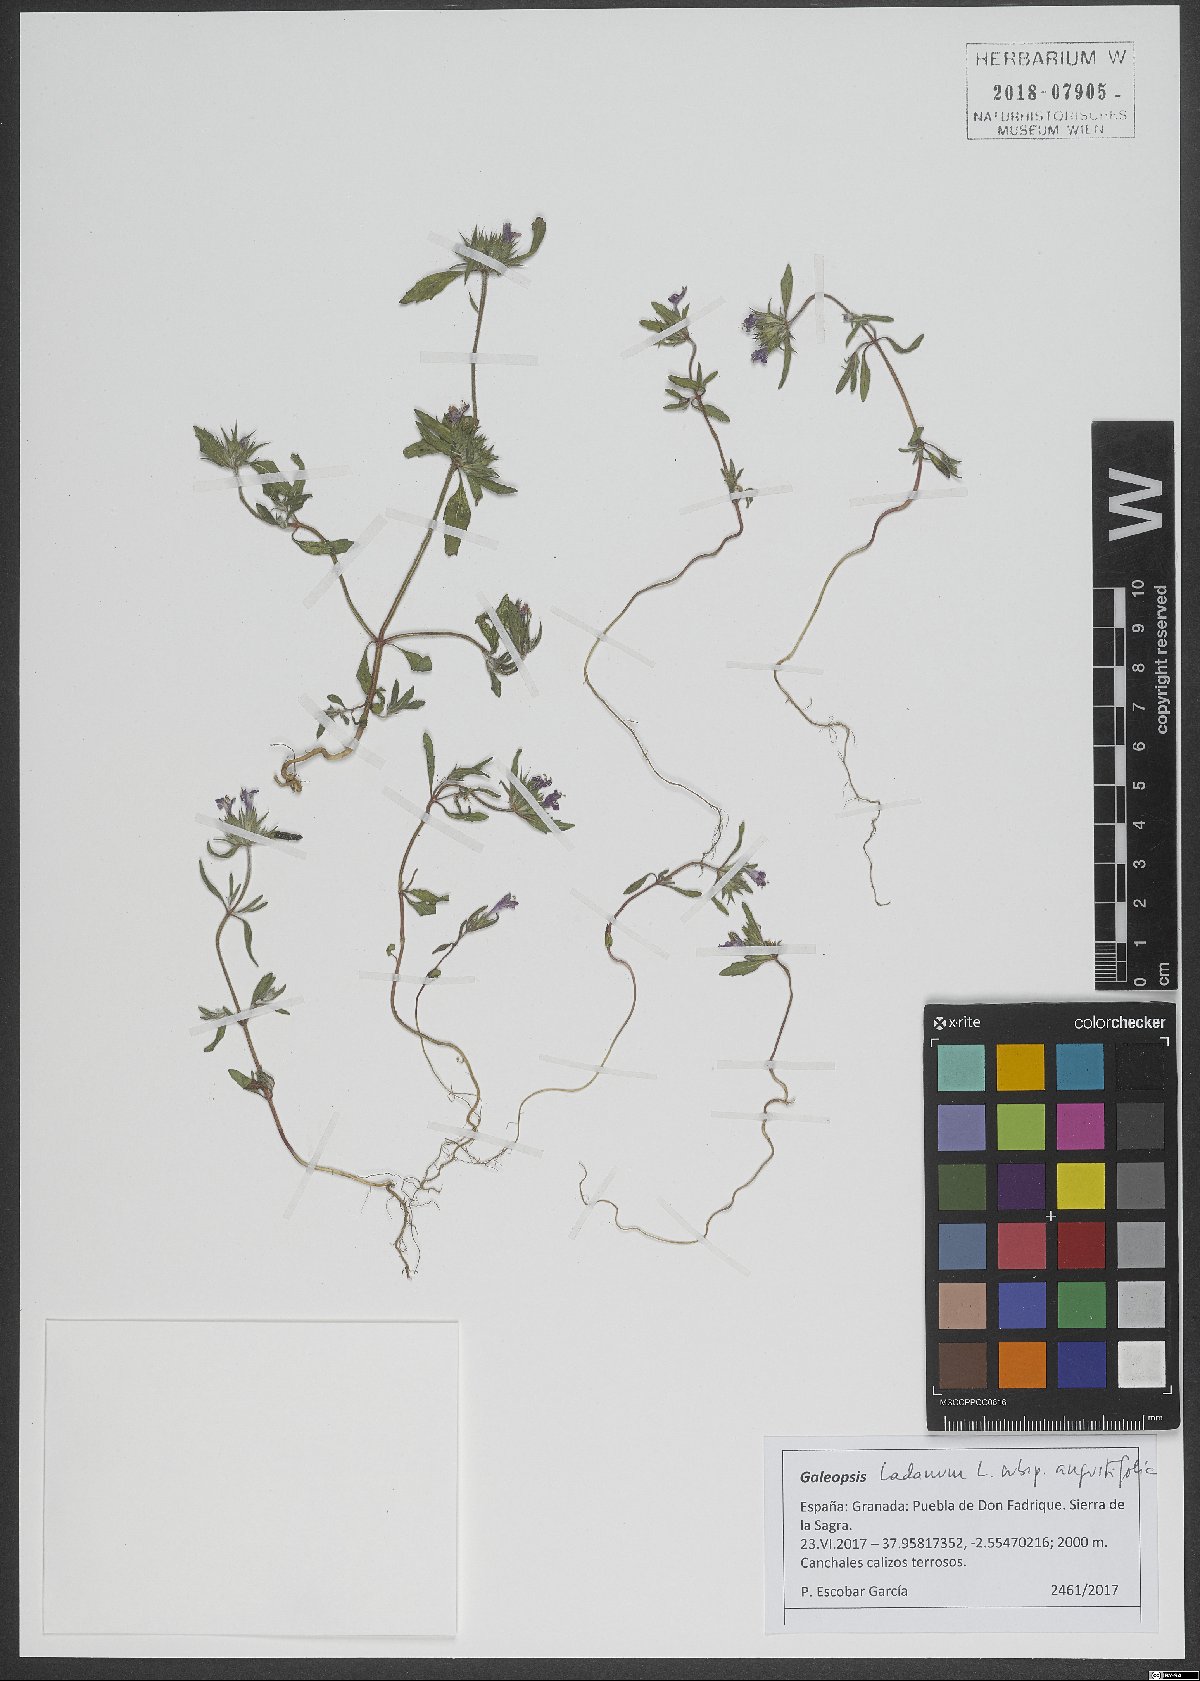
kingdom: Plantae
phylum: Tracheophyta
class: Magnoliopsida
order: Lamiales
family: Lamiaceae
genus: Galeopsis
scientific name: Galeopsis angustifolia
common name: Red hemp-nettle
